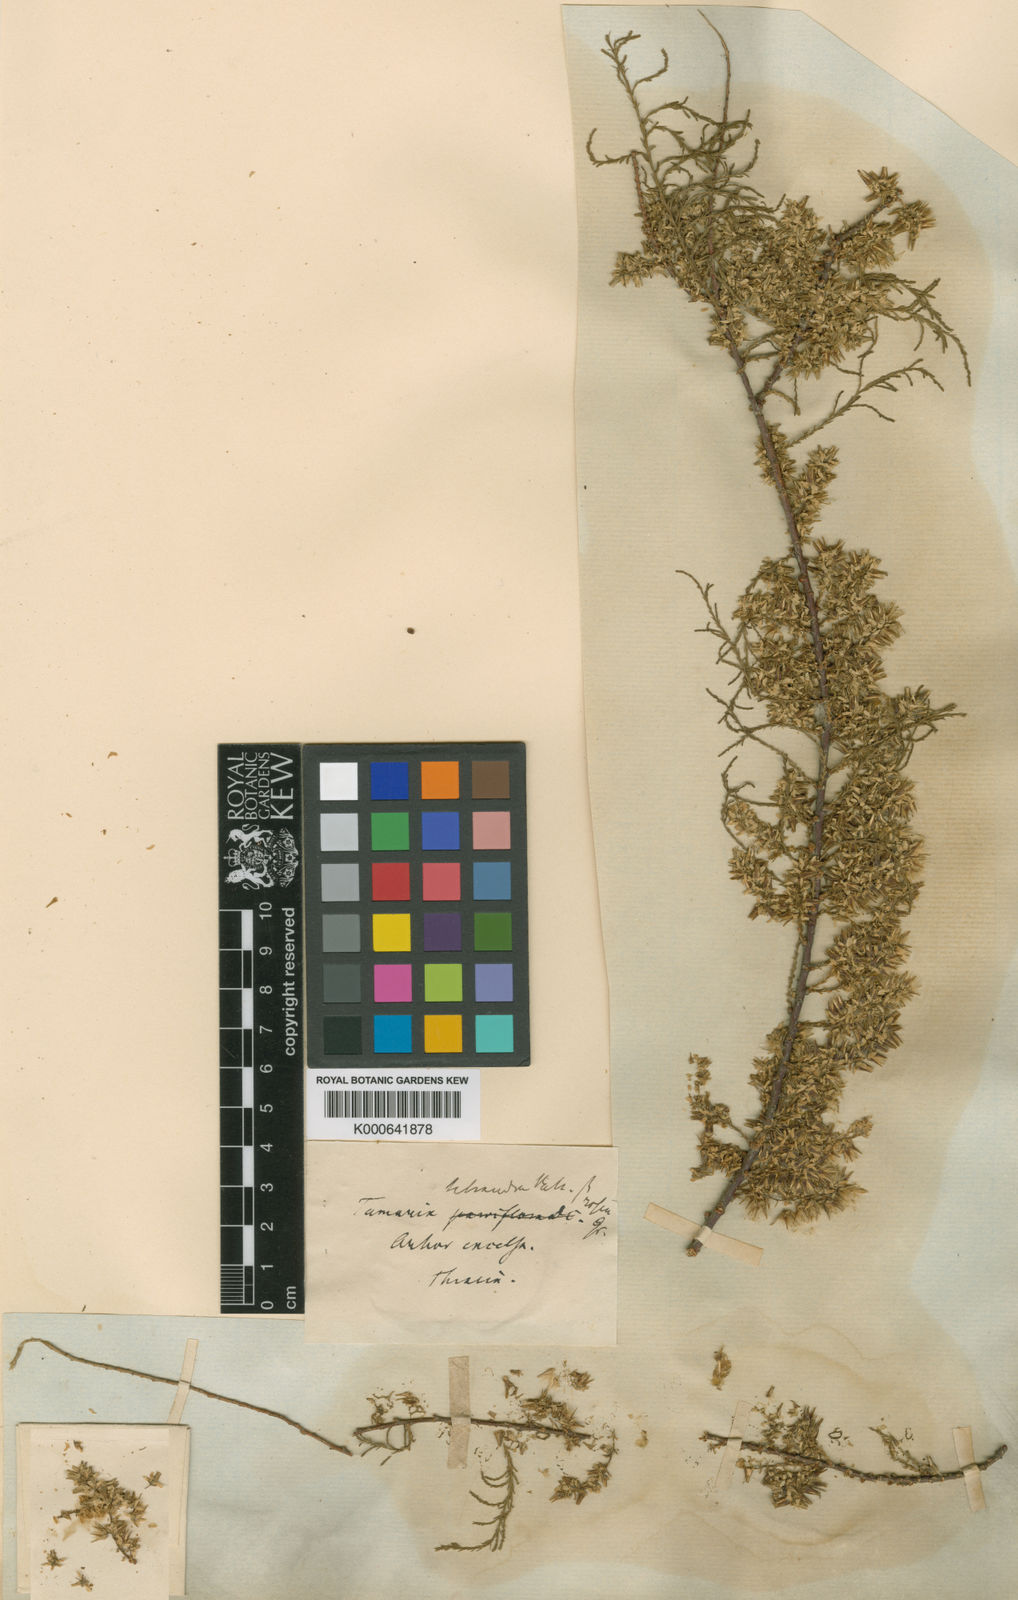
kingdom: Plantae
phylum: Tracheophyta
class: Magnoliopsida
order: Caryophyllales
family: Tamaricaceae
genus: Tamarix
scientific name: Tamarix tetrandra
